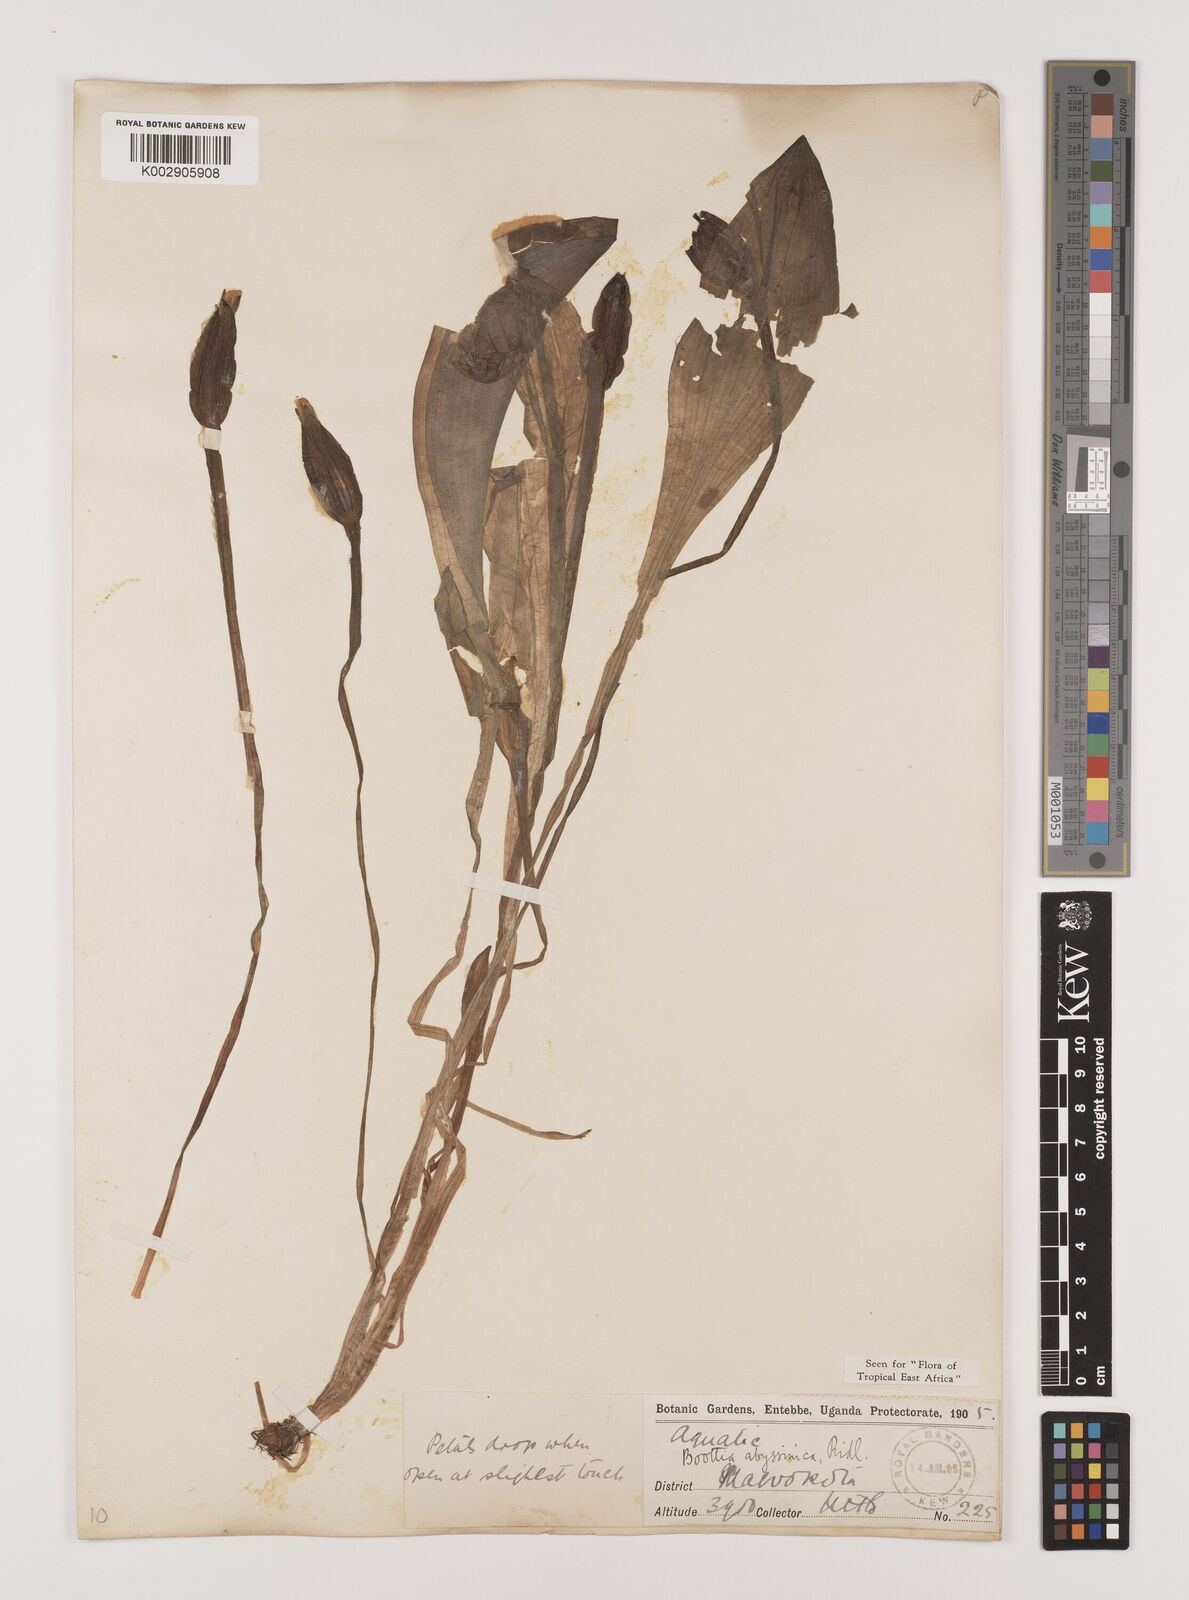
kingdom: Plantae
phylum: Tracheophyta
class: Liliopsida
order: Alismatales
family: Hydrocharitaceae
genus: Ottelia
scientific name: Ottelia ulvifolia
